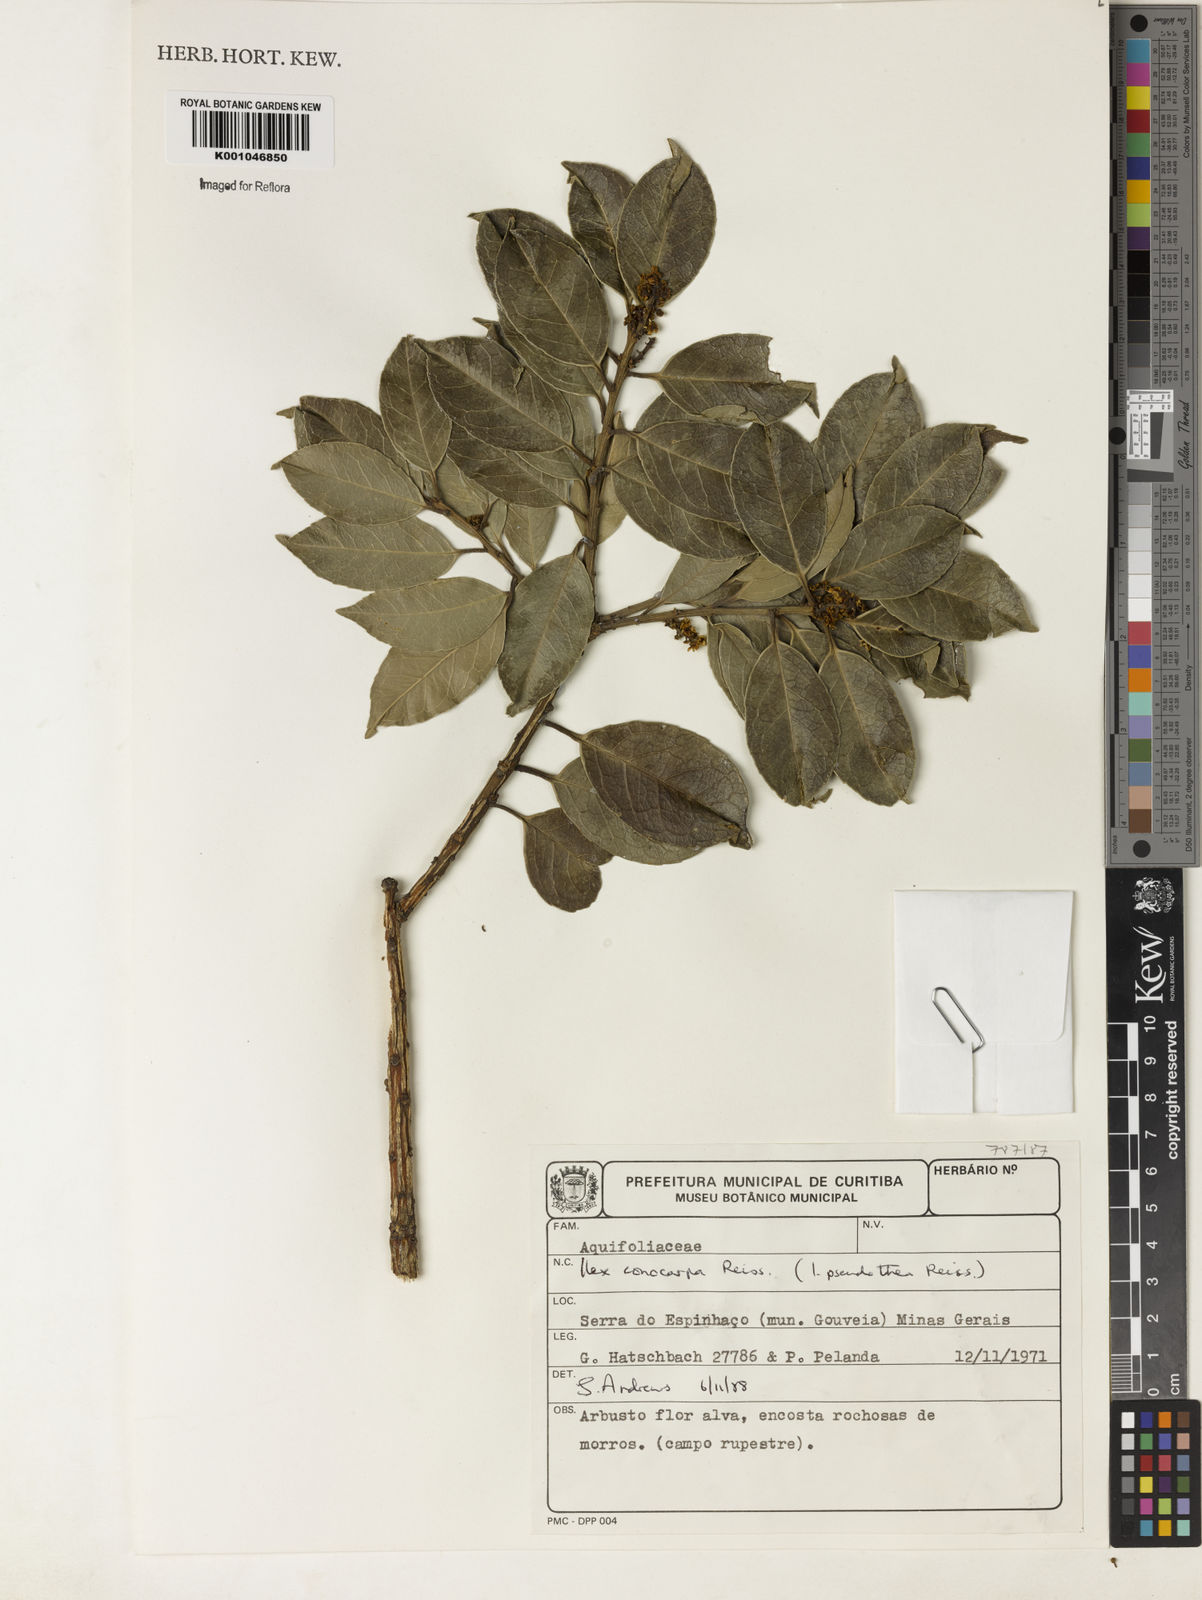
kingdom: Plantae
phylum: Tracheophyta
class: Magnoliopsida
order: Aquifoliales
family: Aquifoliaceae
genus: Ilex
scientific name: Ilex conocarpa
